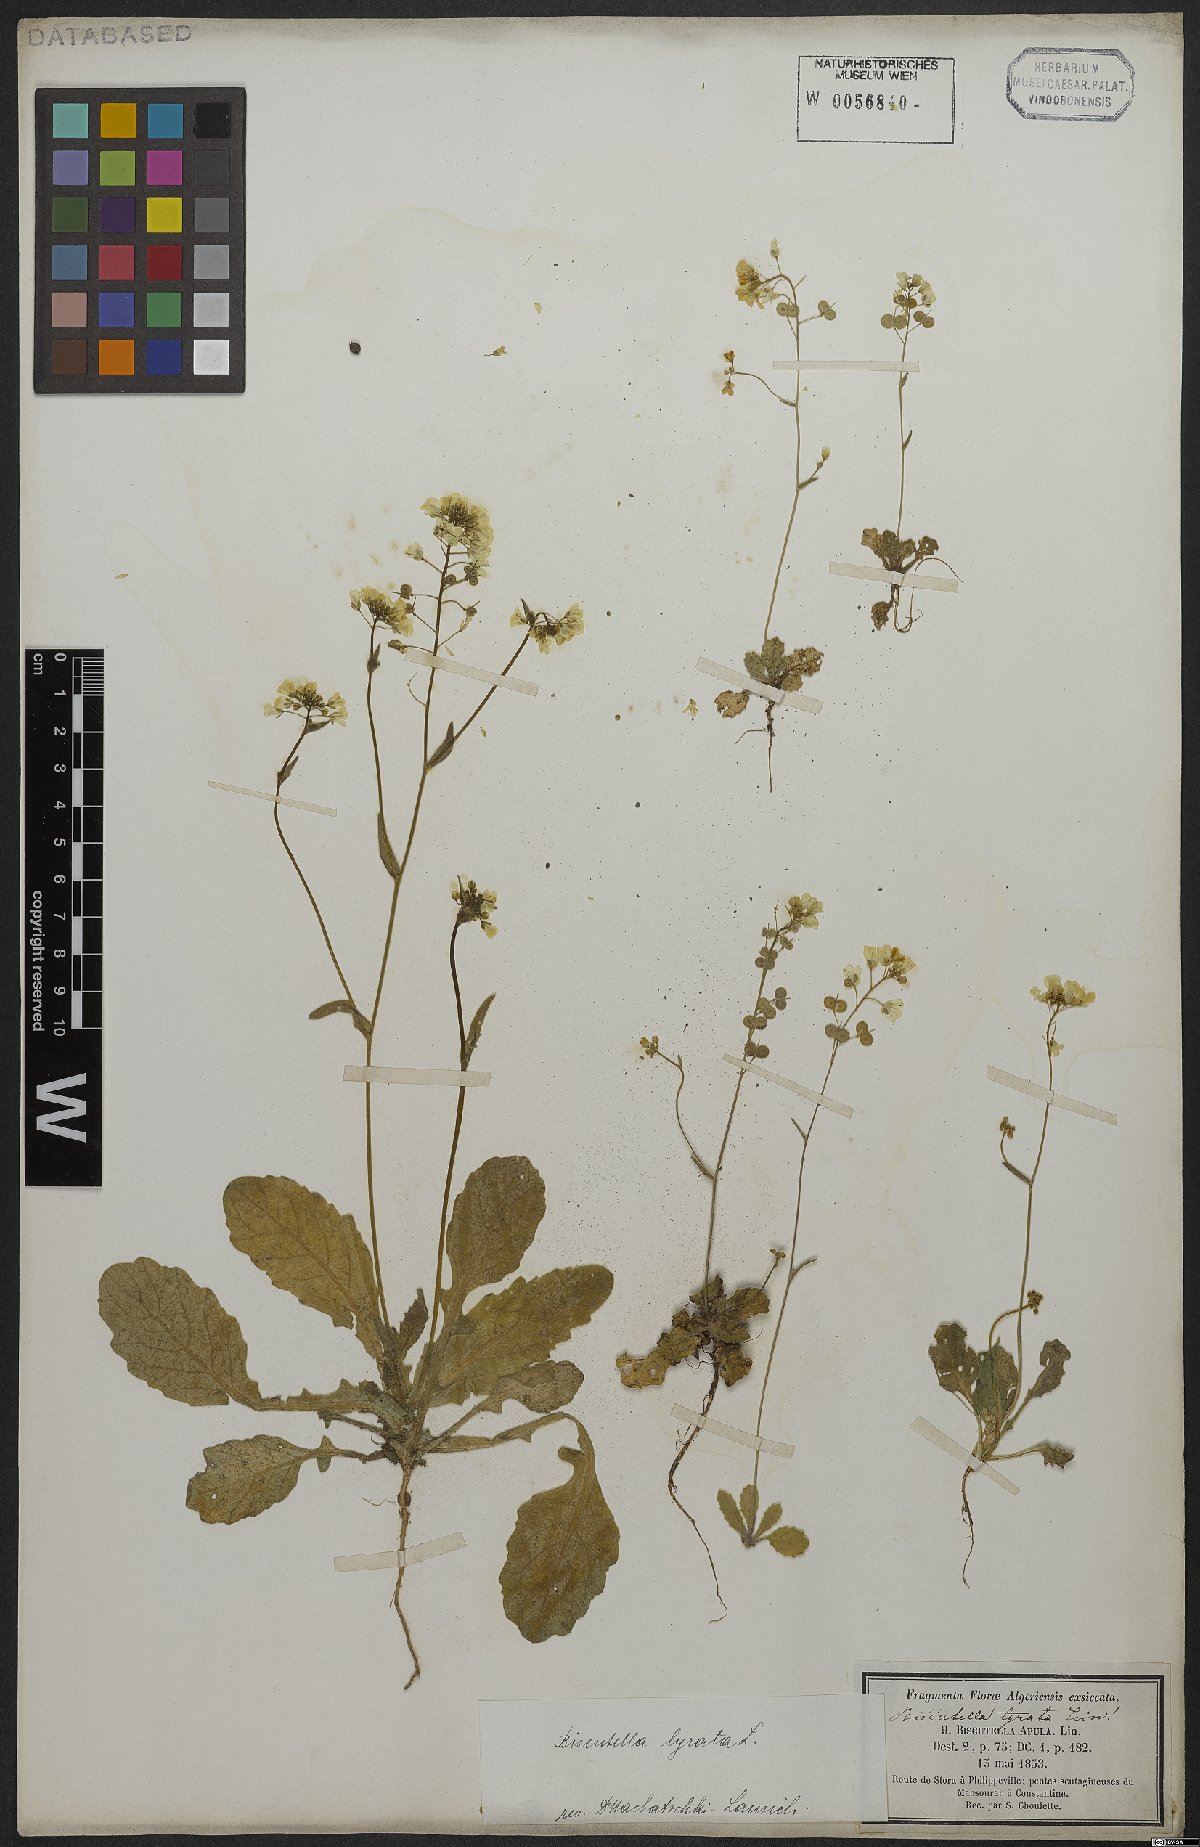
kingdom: Plantae
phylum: Tracheophyta
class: Magnoliopsida
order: Brassicales
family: Brassicaceae
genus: Biscutella
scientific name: Biscutella lyrata
